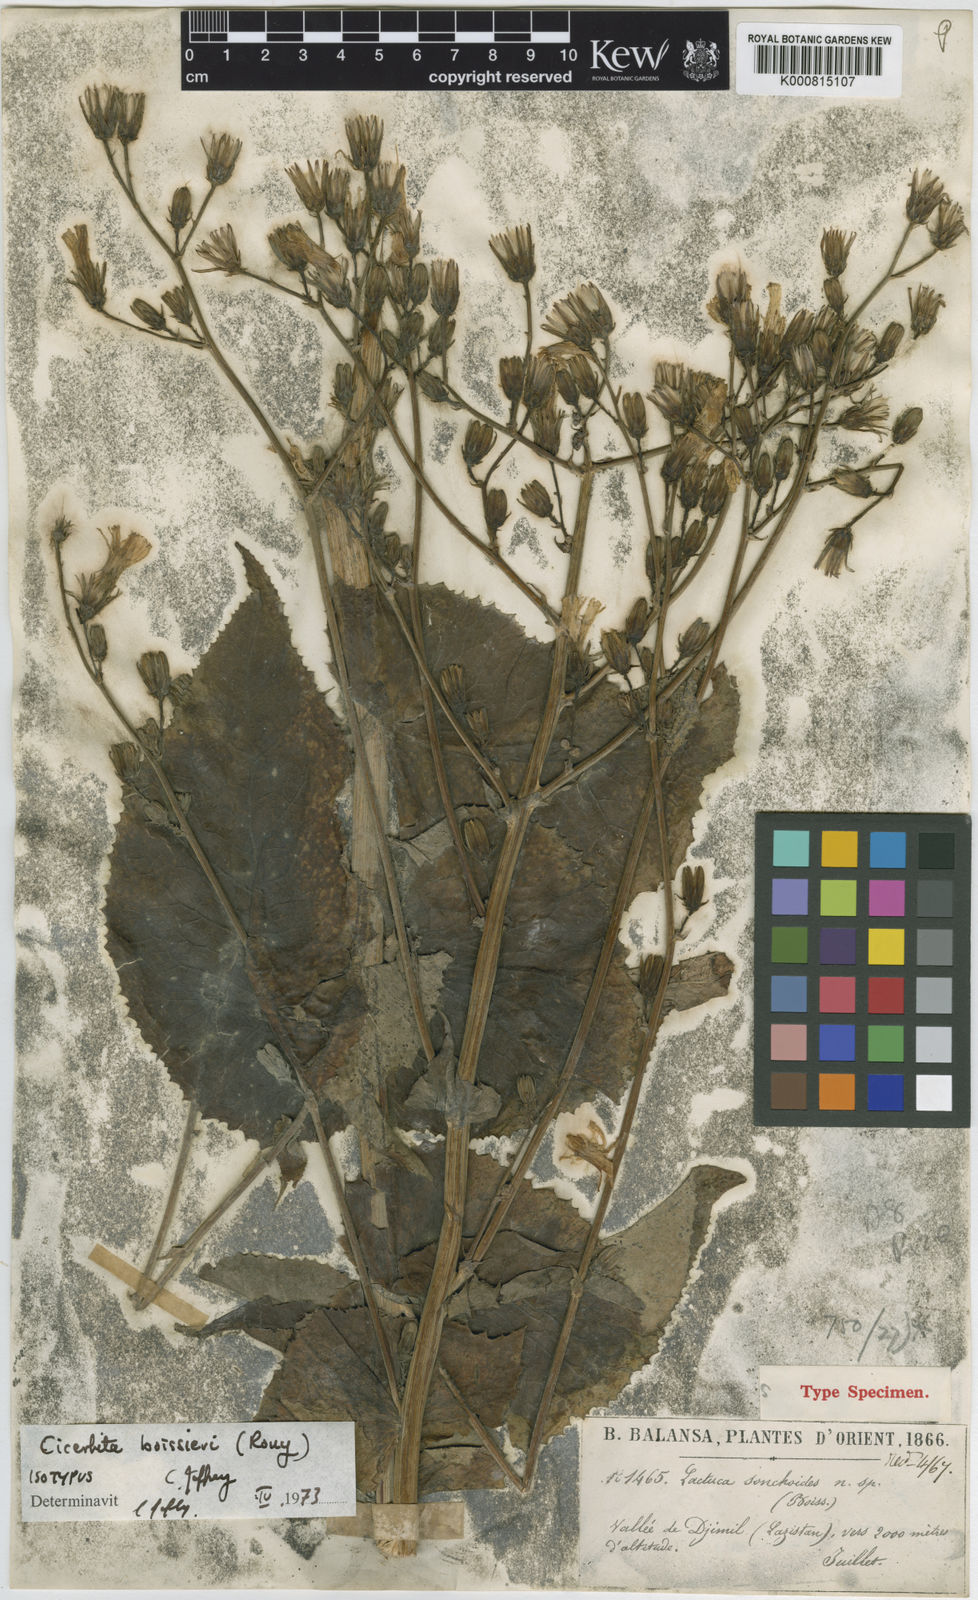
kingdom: Plantae
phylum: Tracheophyta
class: Magnoliopsida
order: Asterales
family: Asteraceae
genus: Lactuca
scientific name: Lactuca boissieri
